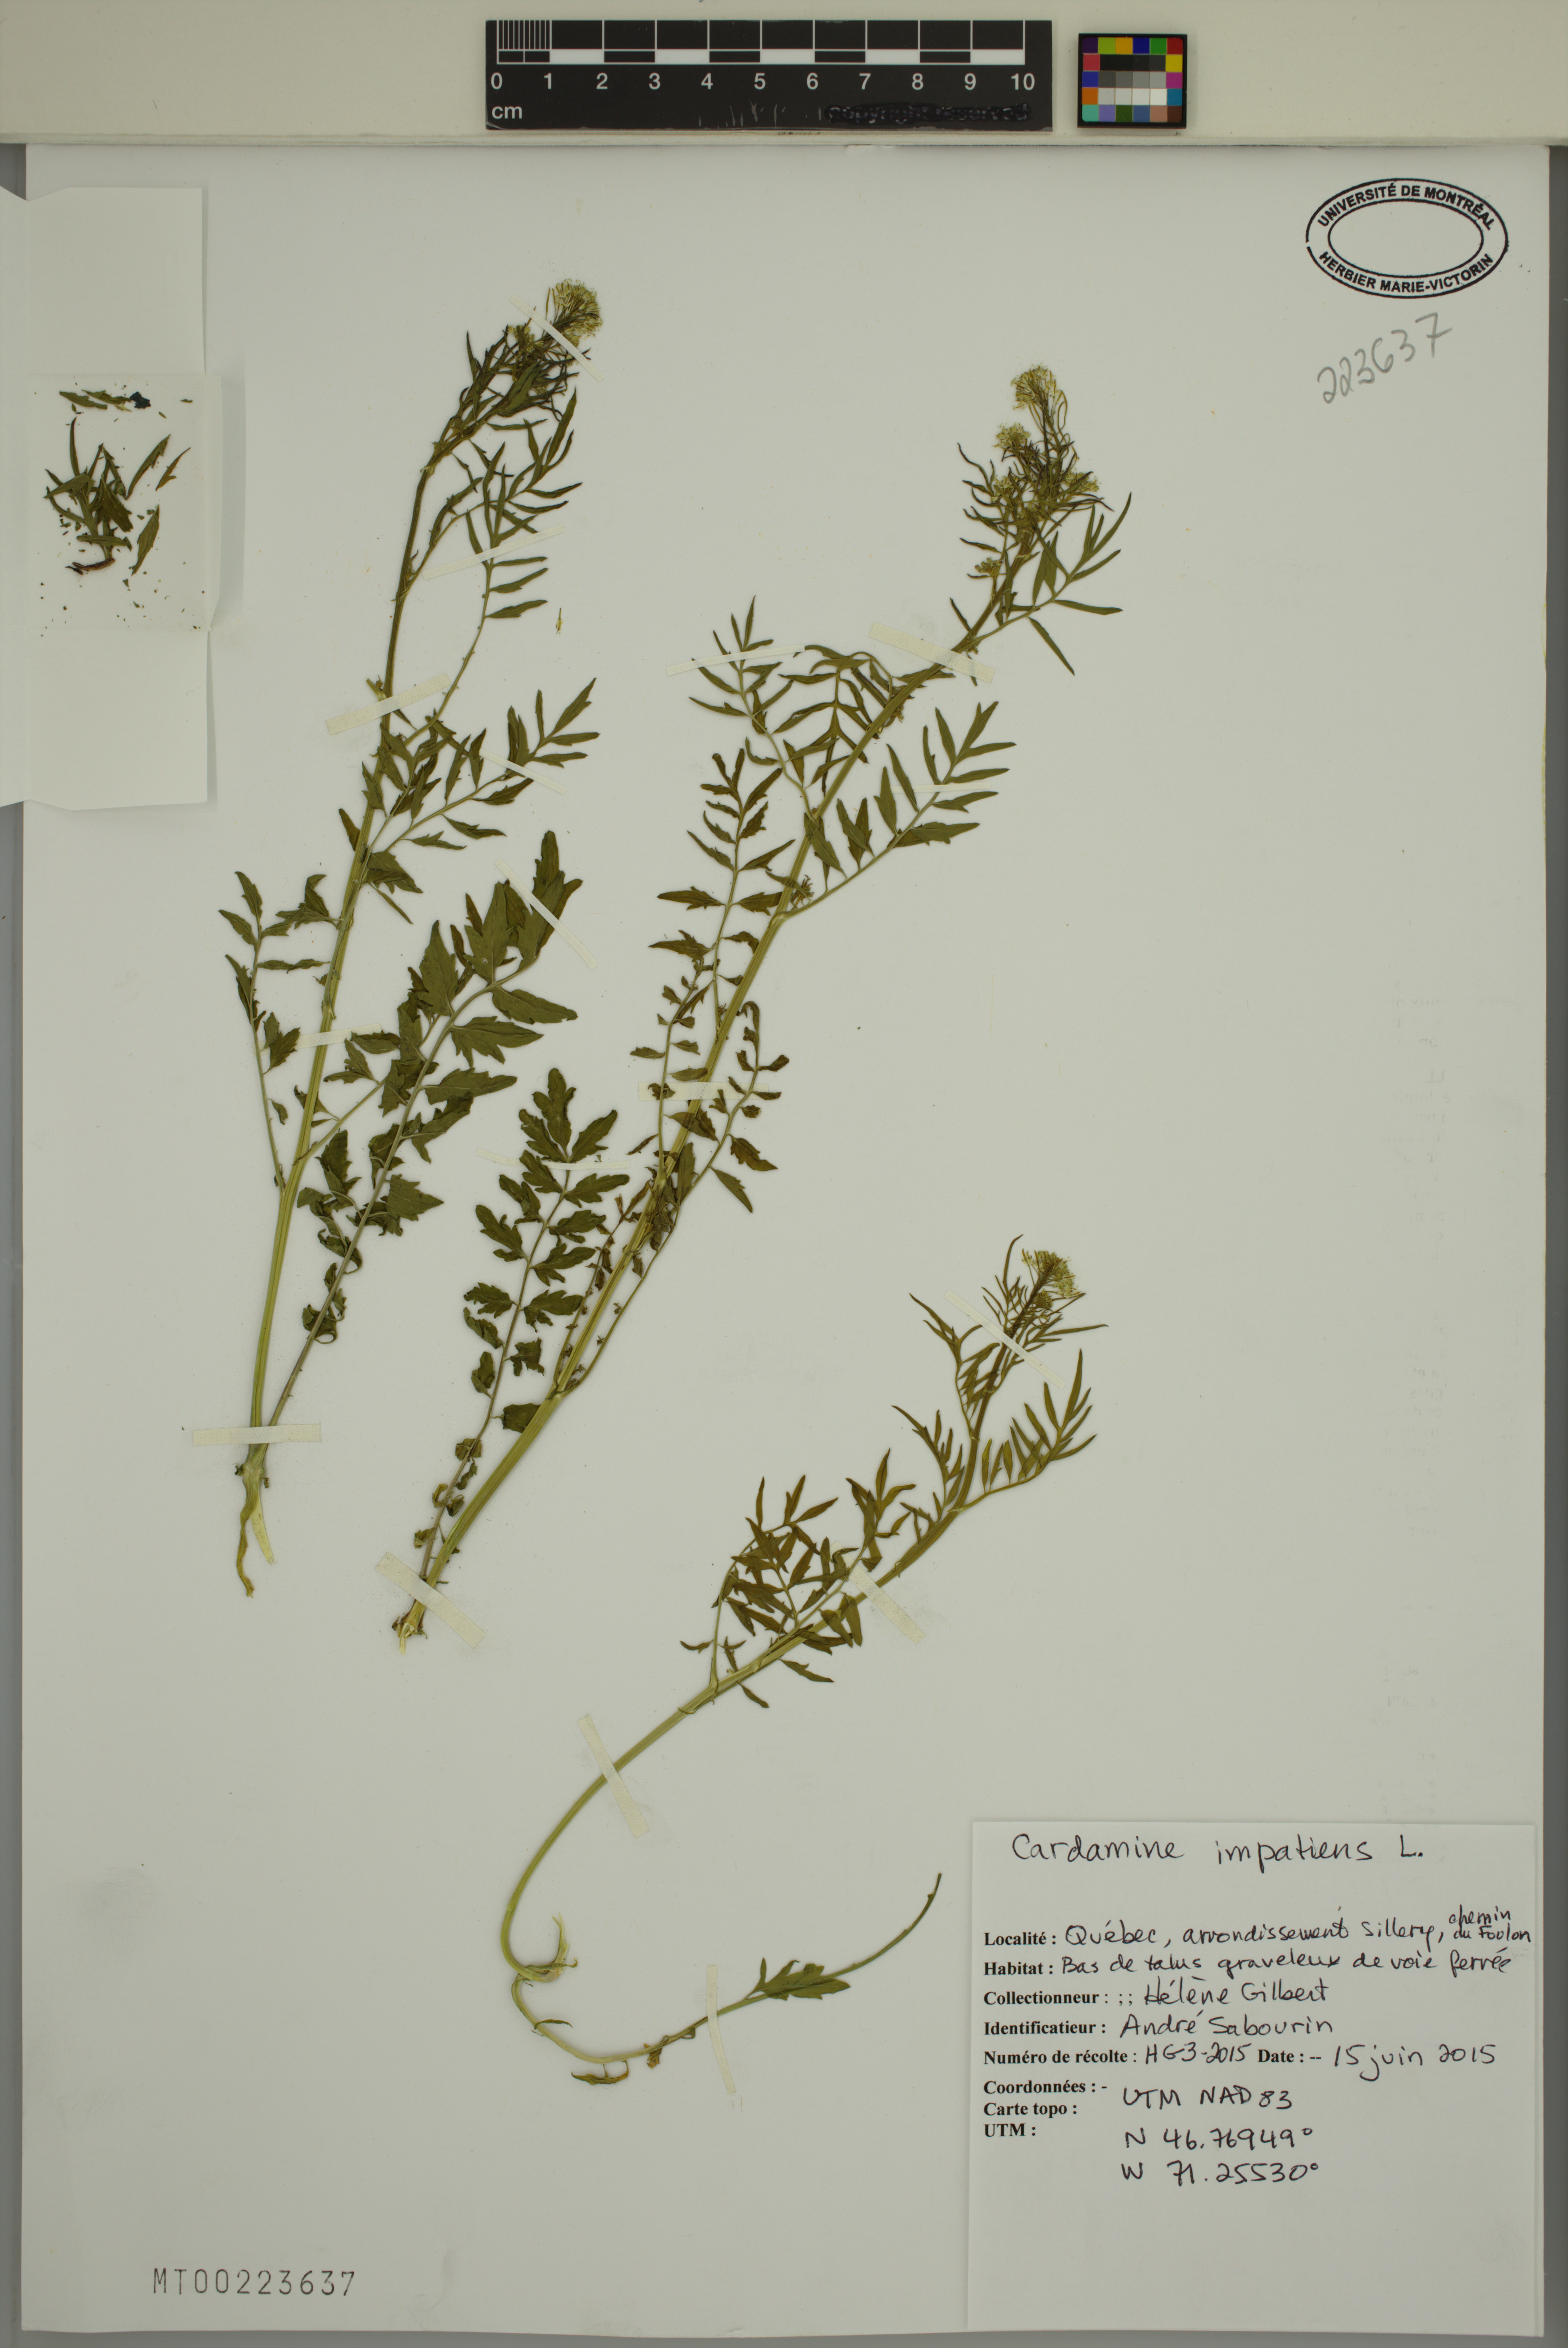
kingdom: Plantae
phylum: Tracheophyta
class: Magnoliopsida
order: Brassicales
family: Brassicaceae
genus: Cardamine
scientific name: Cardamine impatiens
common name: Narrow-leaved bitter-cress
